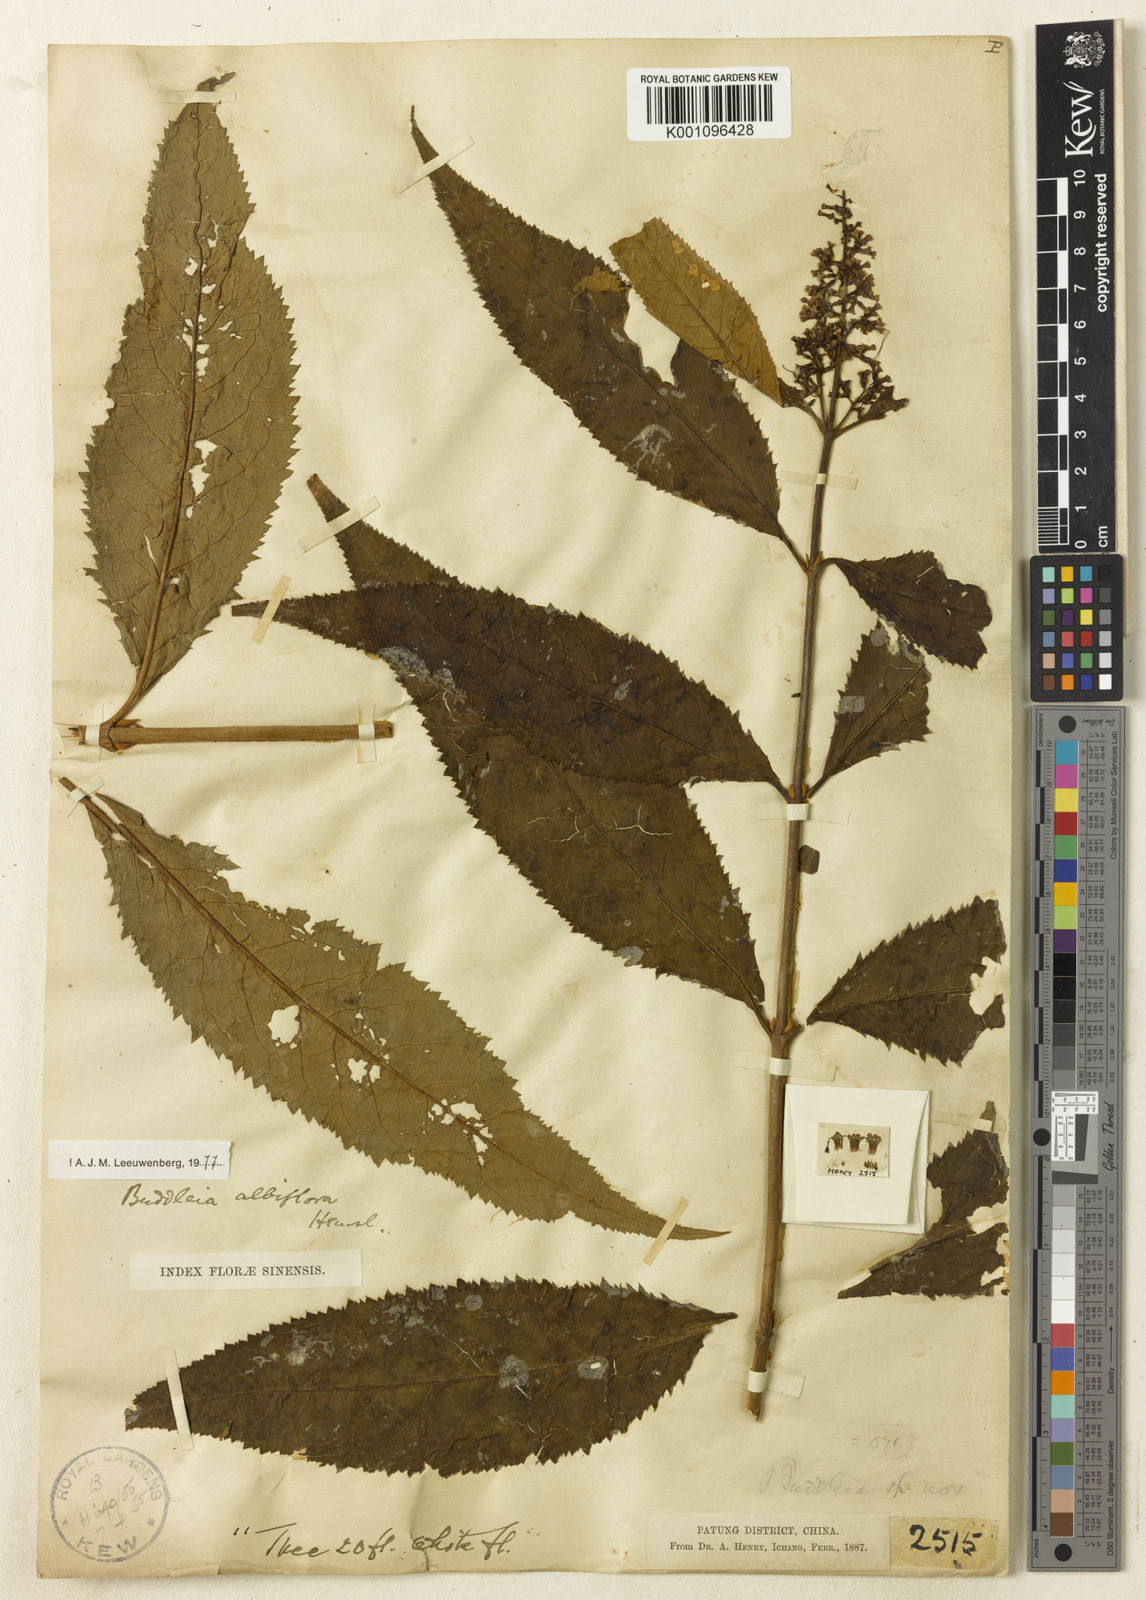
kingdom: Plantae
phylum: Tracheophyta
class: Magnoliopsida
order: Lamiales
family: Scrophulariaceae
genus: Buddleja
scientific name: Buddleja albiflora
